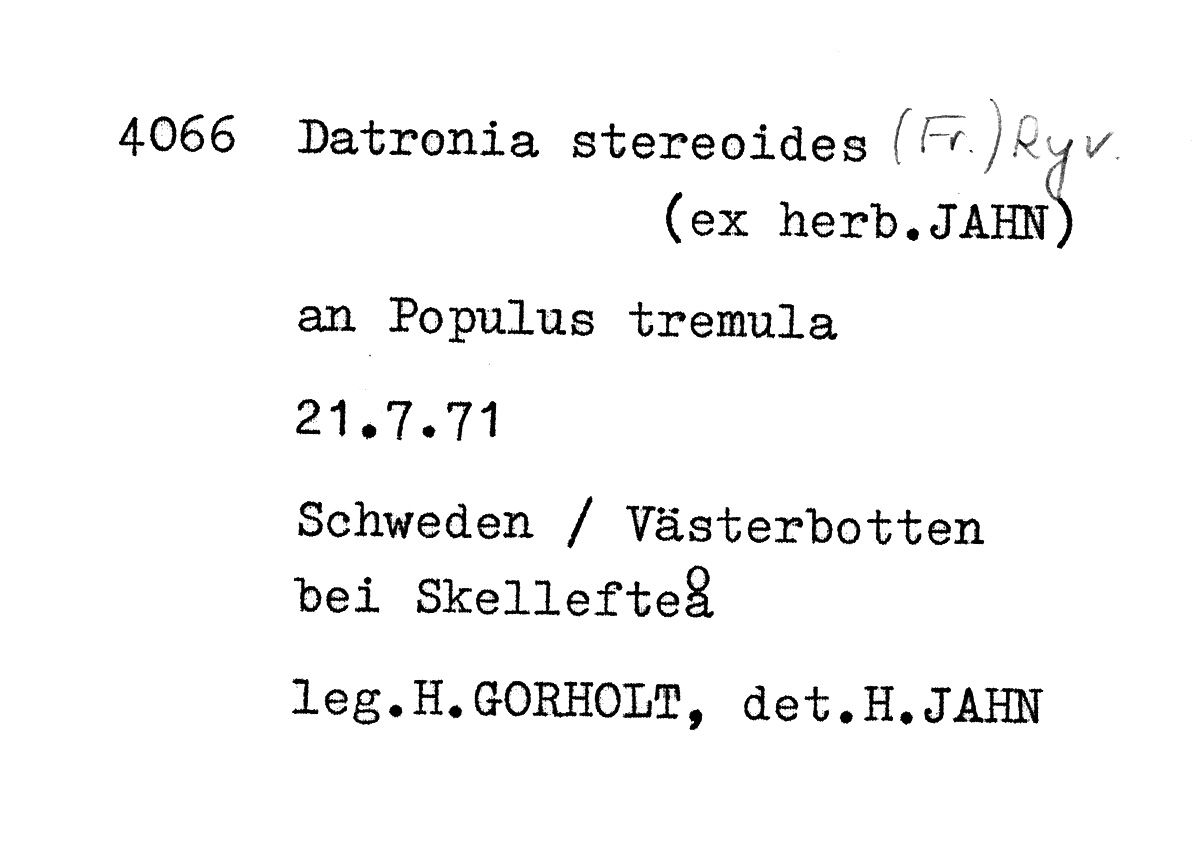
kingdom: Fungi
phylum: Basidiomycota
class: Agaricomycetes
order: Polyporales
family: Polyporaceae
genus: Podofomes
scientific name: Podofomes stereoides
